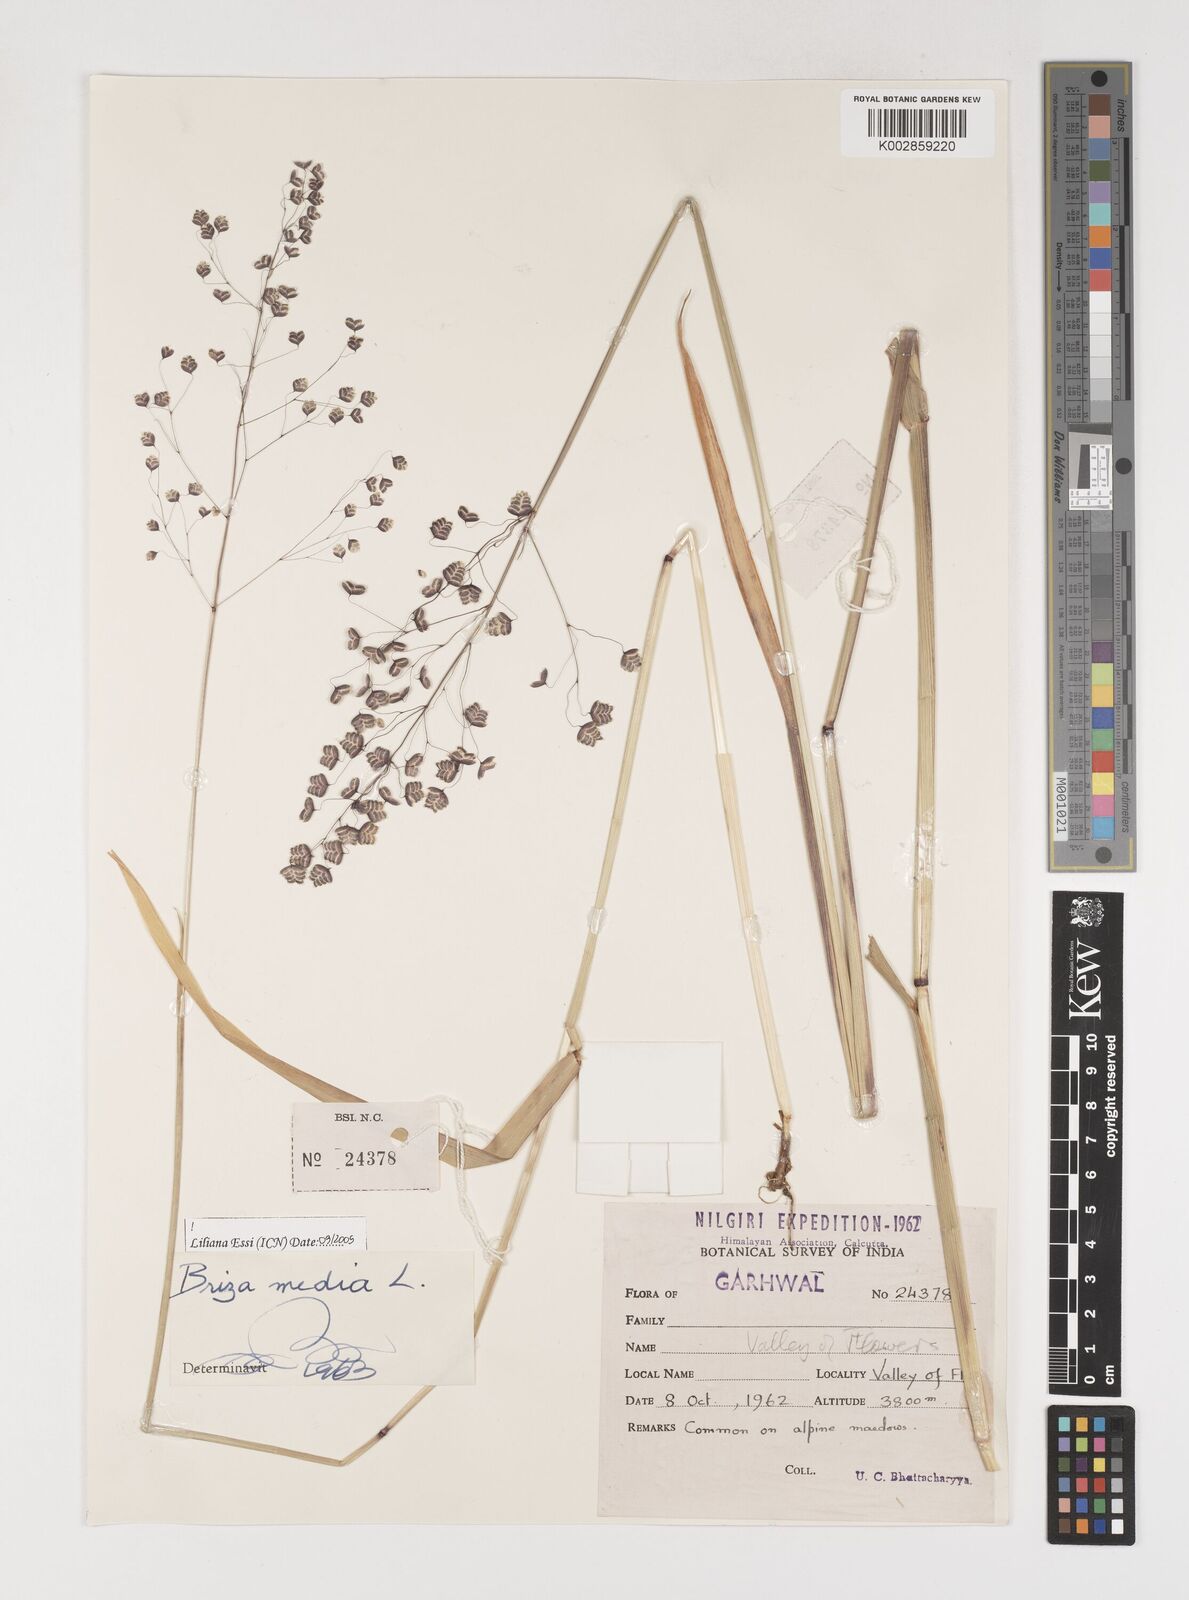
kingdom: Plantae
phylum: Tracheophyta
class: Liliopsida
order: Poales
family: Poaceae
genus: Briza
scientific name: Briza media
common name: Quaking grass
